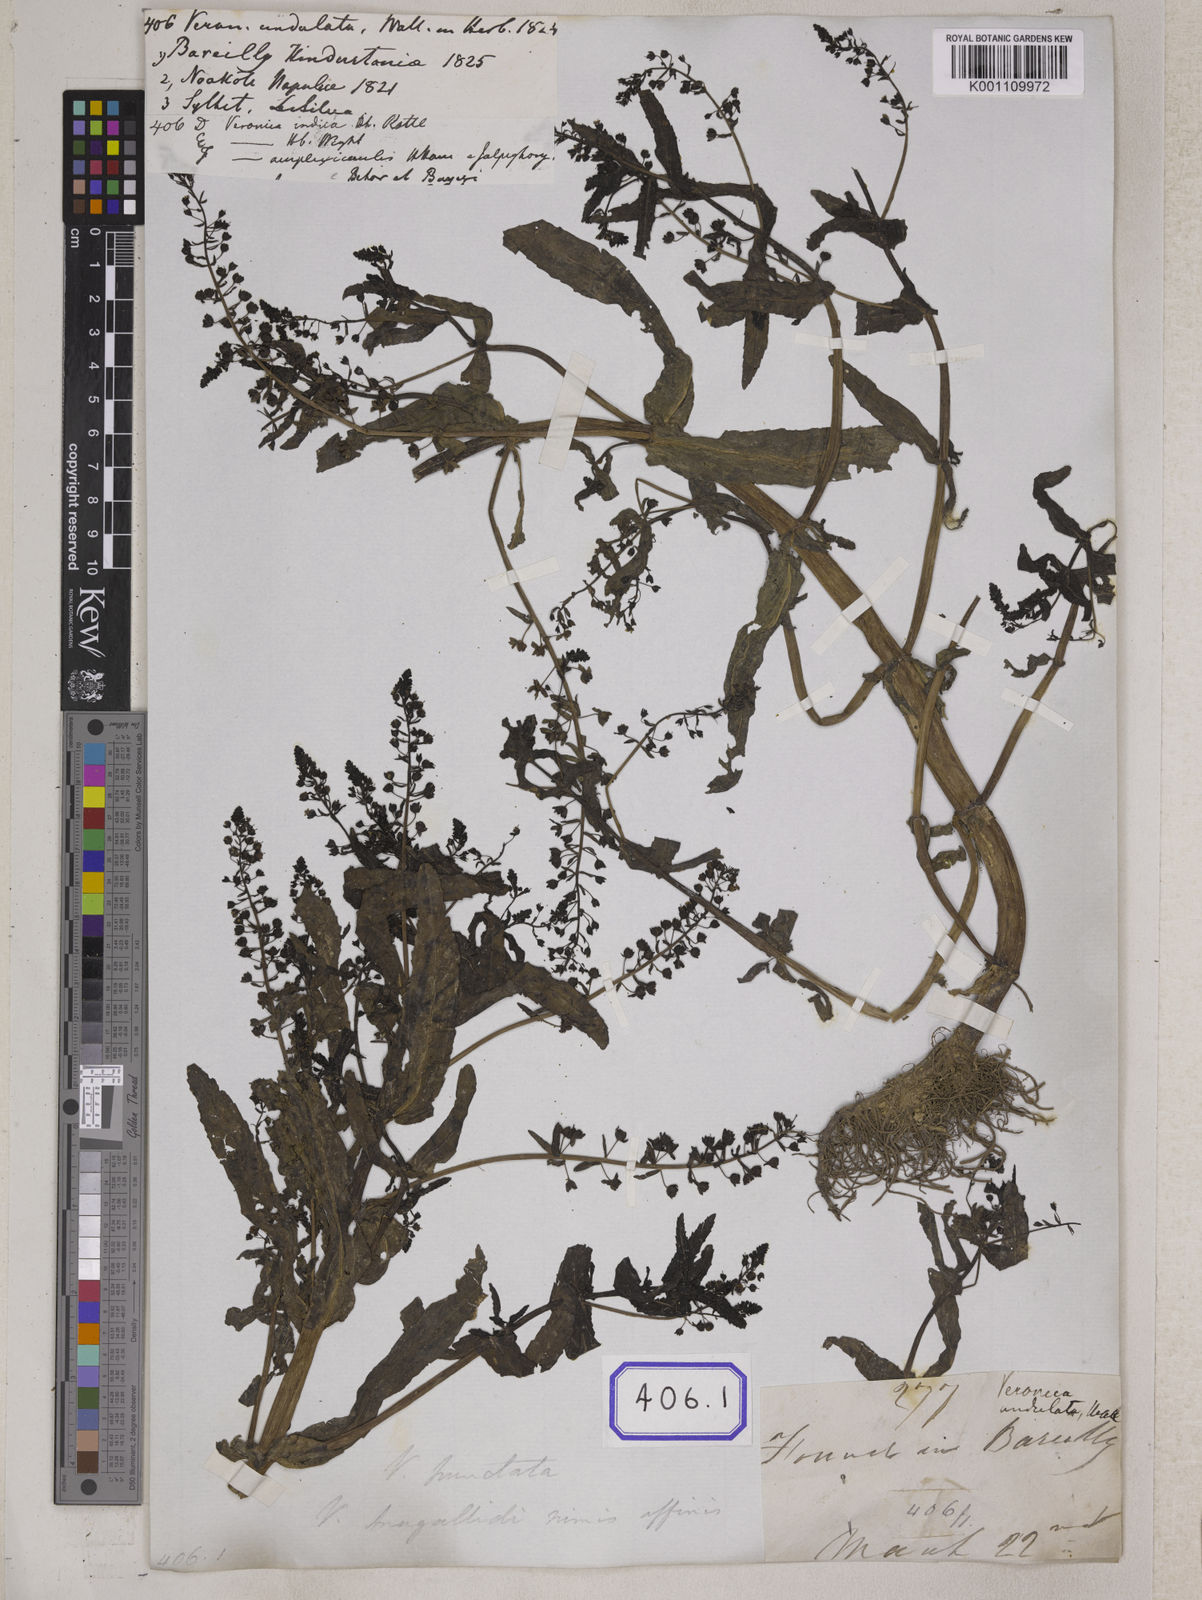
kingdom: Plantae
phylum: Tracheophyta
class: Magnoliopsida
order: Lamiales
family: Plantaginaceae
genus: Veronica
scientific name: Veronica undulata
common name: Undulate speedwell
